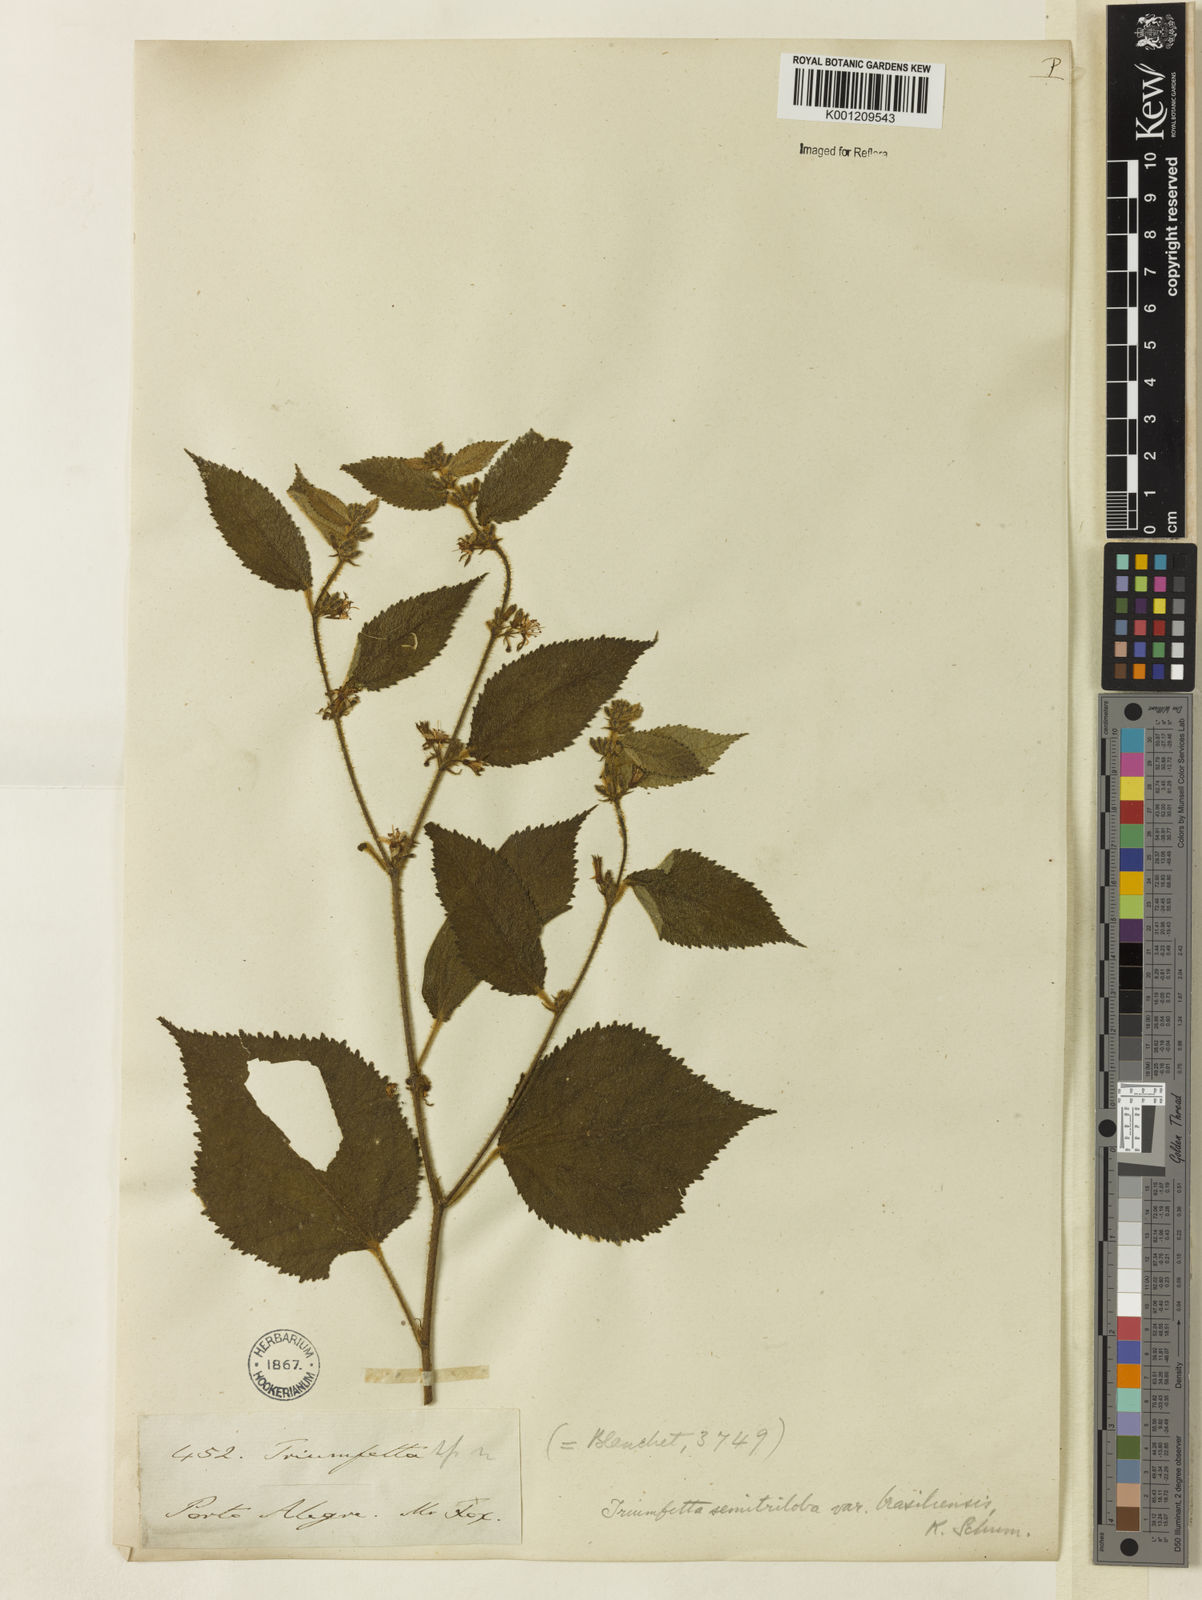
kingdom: Plantae
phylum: Tracheophyta
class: Magnoliopsida
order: Malvales
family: Malvaceae
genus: Triumfetta
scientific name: Triumfetta semitriloba
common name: Sacramento burbark
